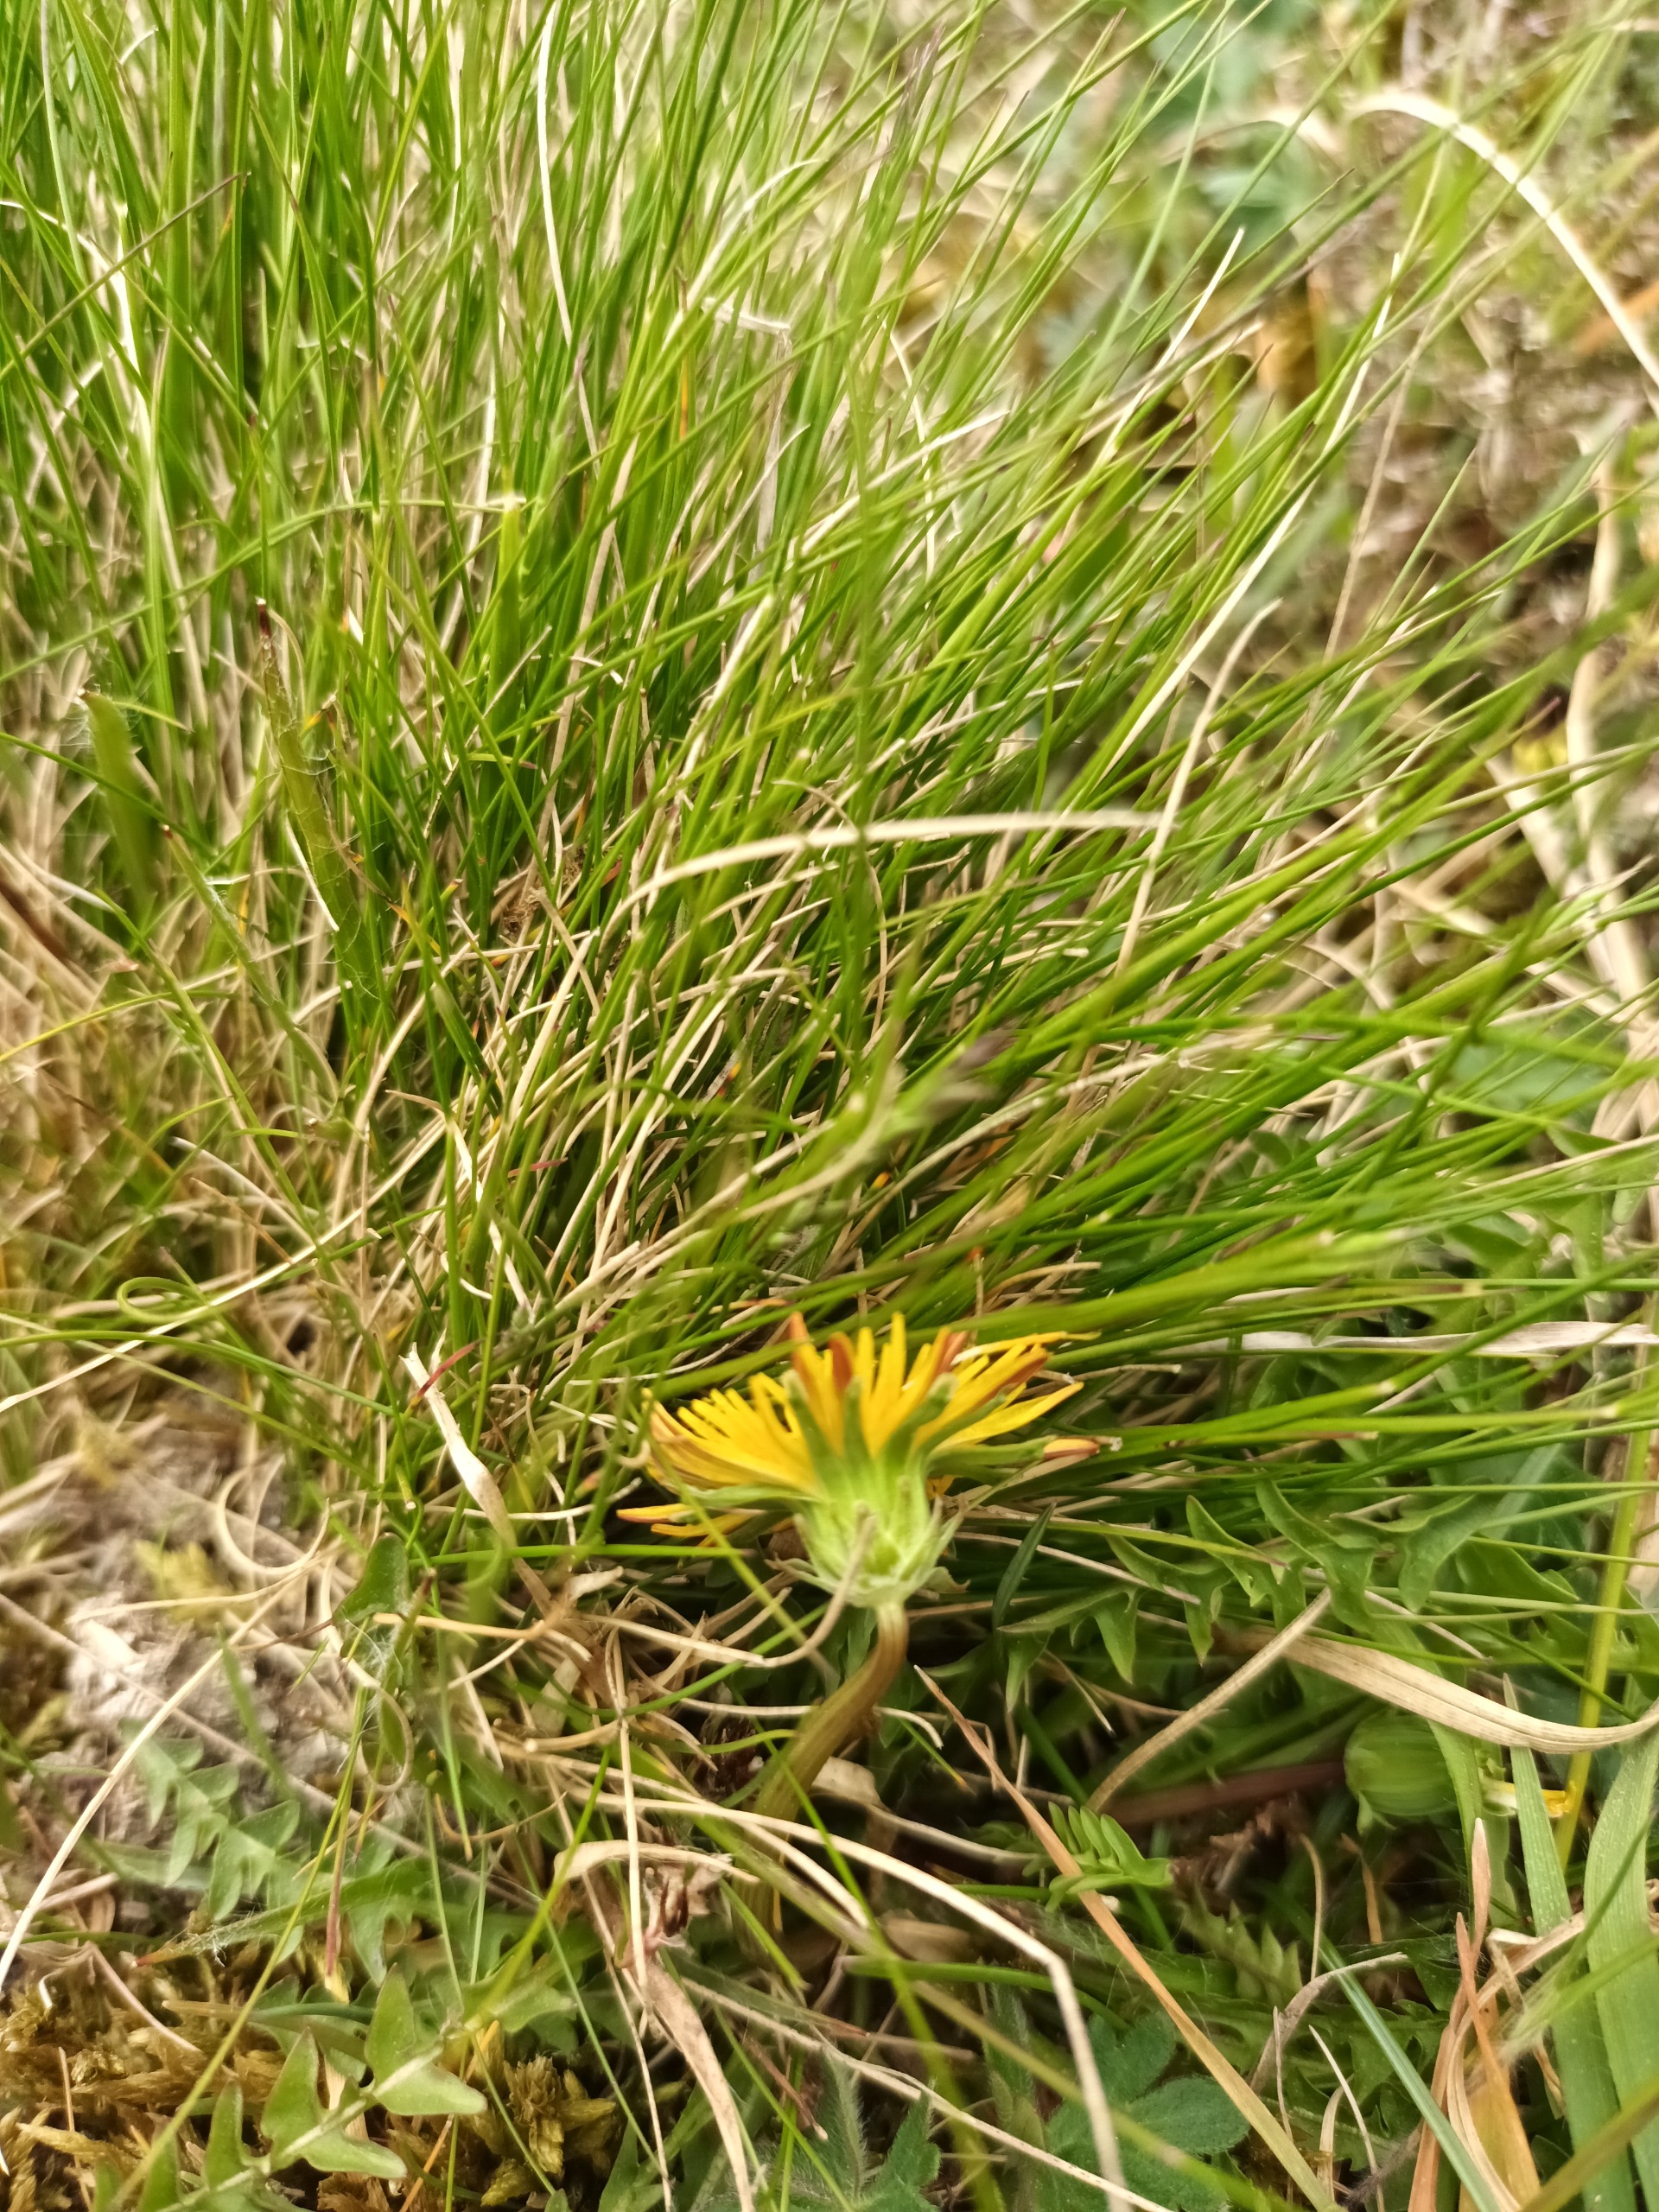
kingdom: Plantae
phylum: Tracheophyta
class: Magnoliopsida
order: Asterales
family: Asteraceae
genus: Taraxacum
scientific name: Taraxacum obliquum
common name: Gråfrugtet dværgmælkebøtte
